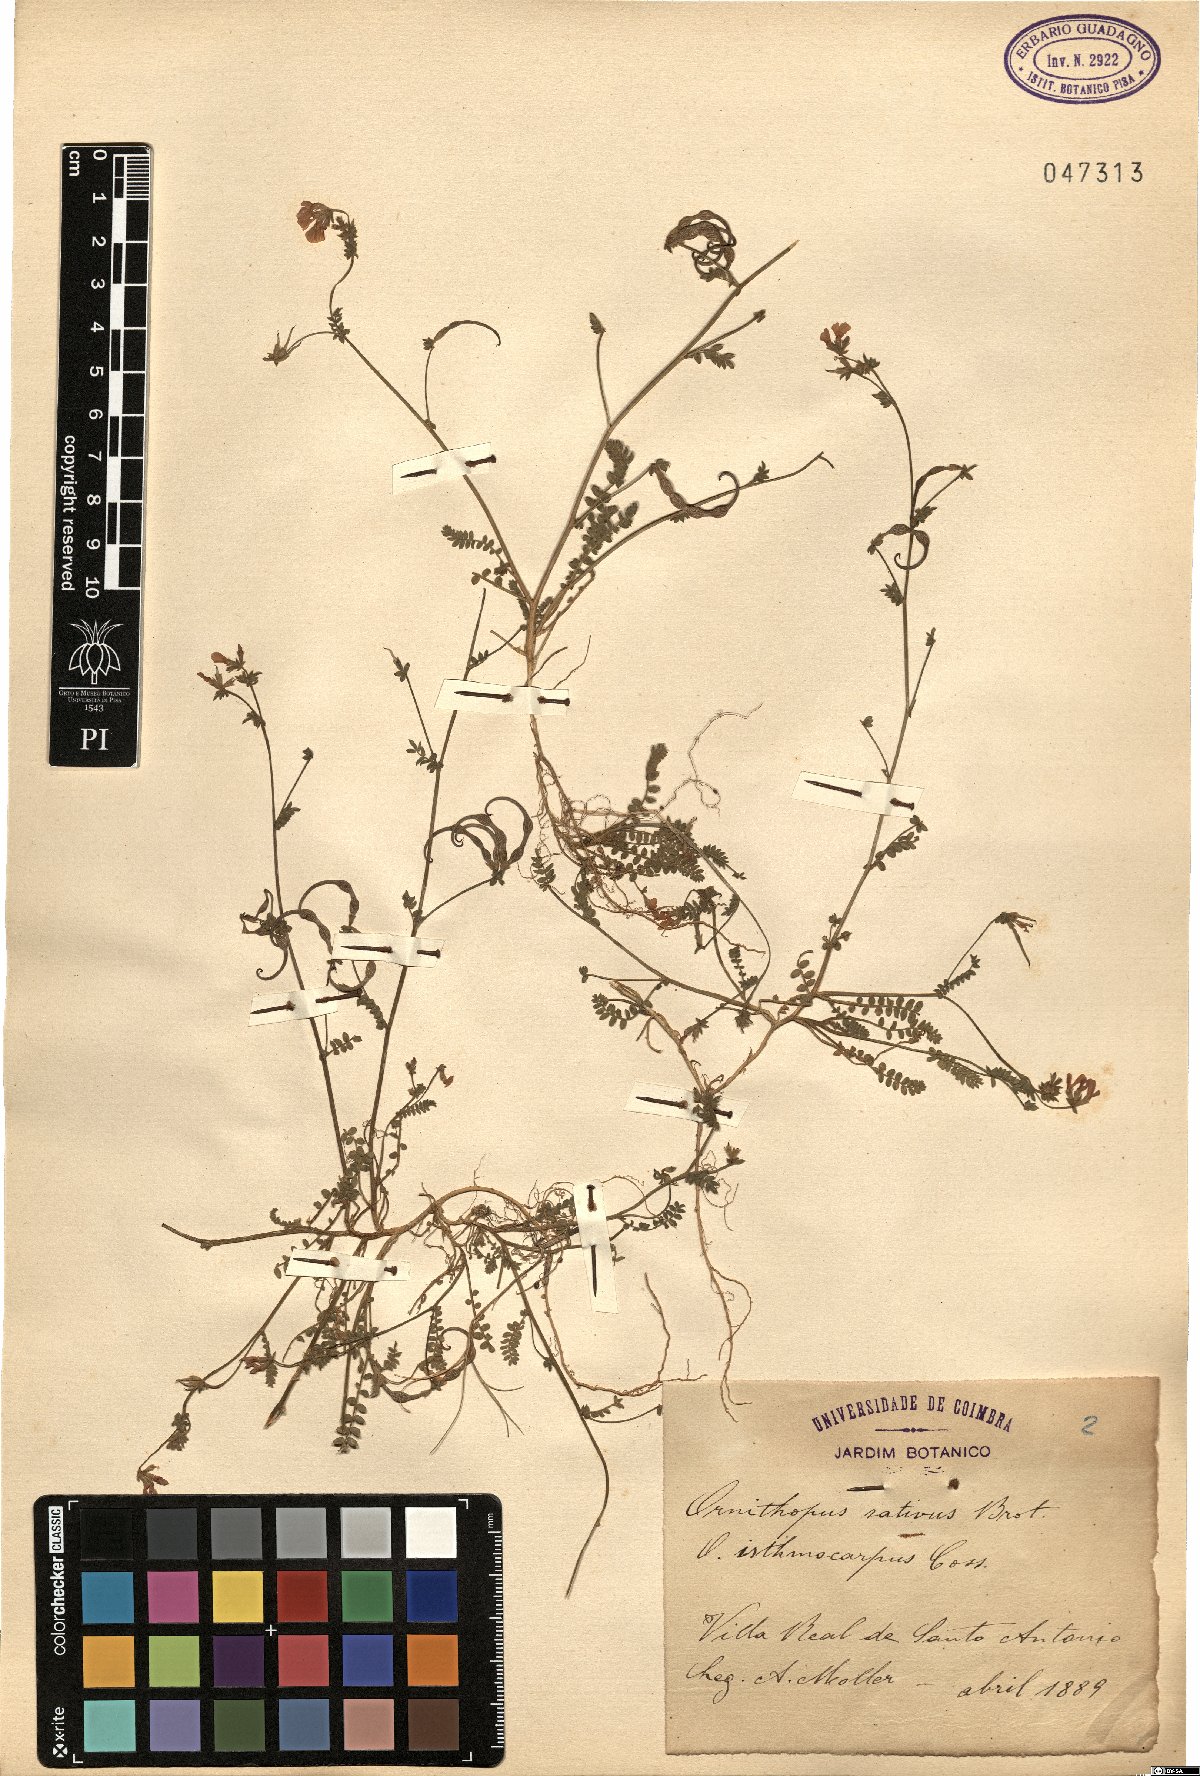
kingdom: Plantae
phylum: Tracheophyta
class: Magnoliopsida
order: Fabales
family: Fabaceae
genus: Ornithopus
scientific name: Ornithopus sativus
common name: Serradella
